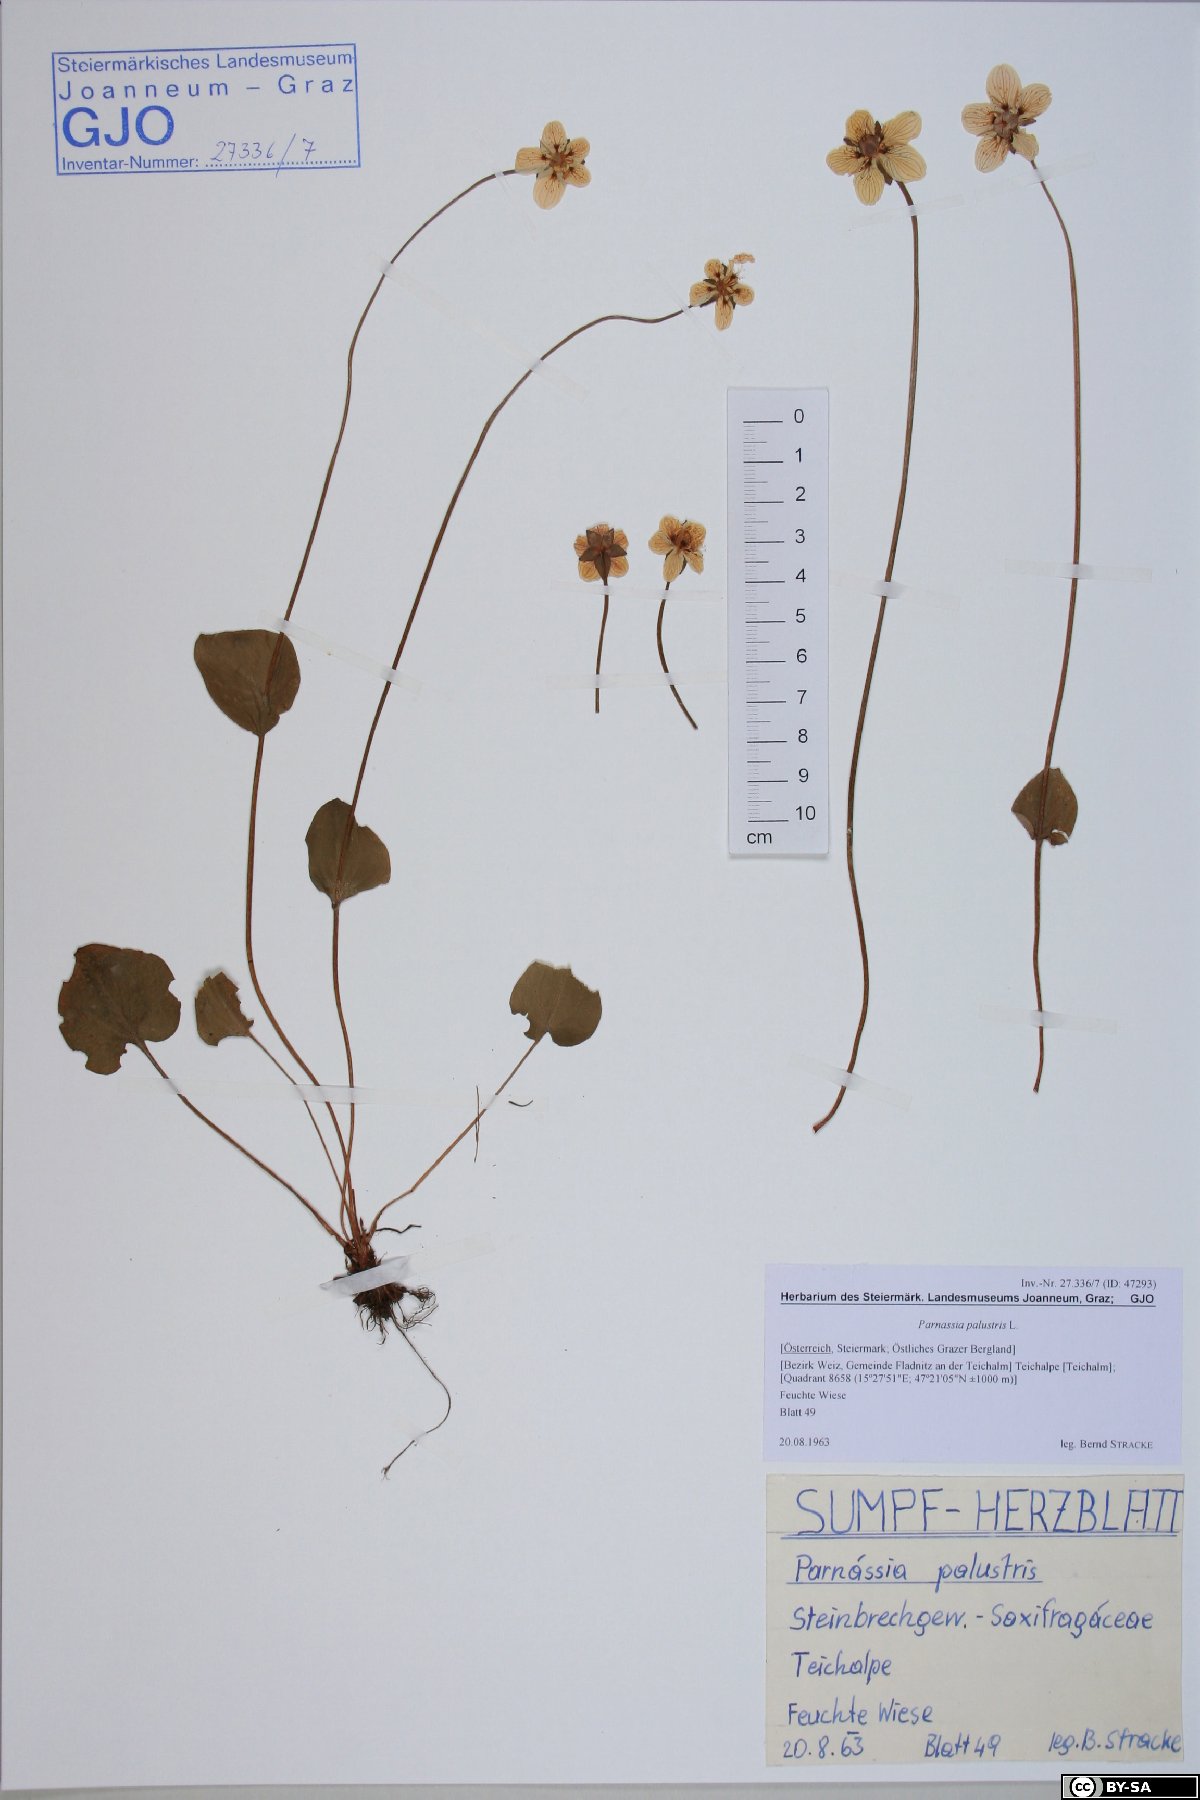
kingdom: Plantae
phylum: Tracheophyta
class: Magnoliopsida
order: Celastrales
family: Parnassiaceae
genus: Parnassia
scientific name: Parnassia palustris
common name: Grass-of-parnassus
